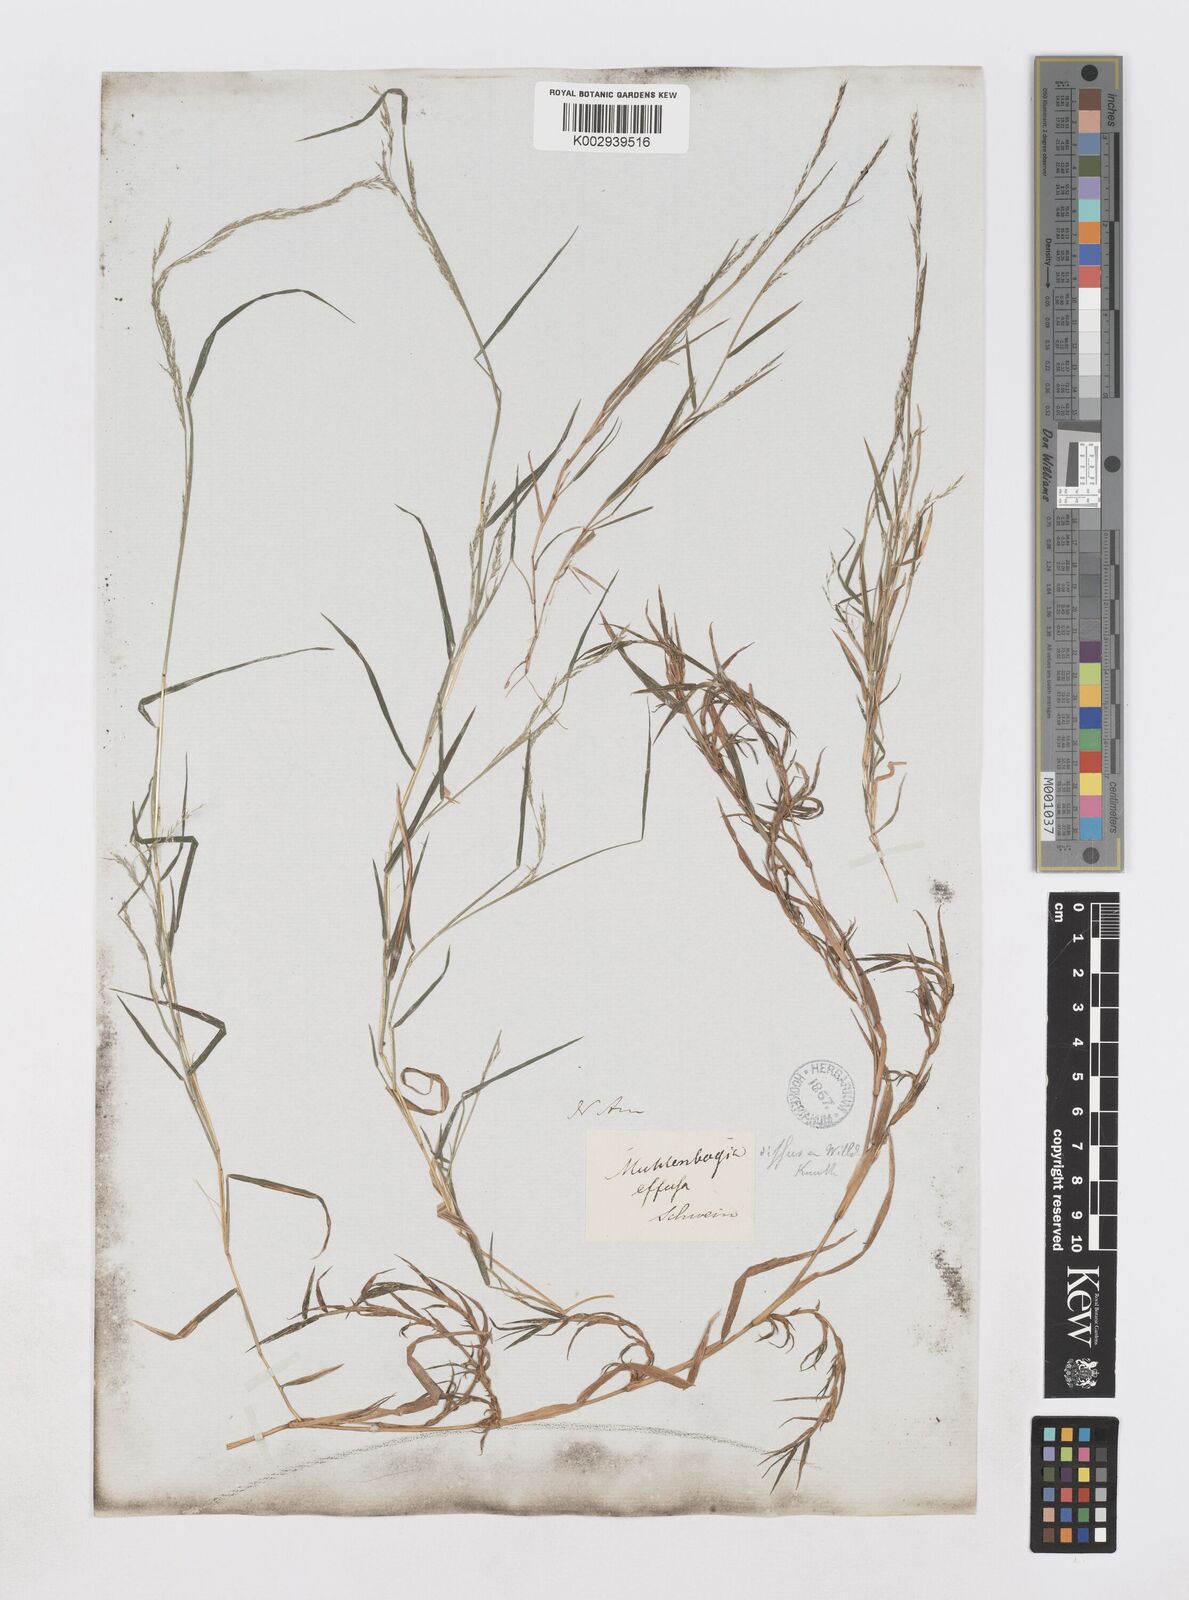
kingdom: Plantae
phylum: Tracheophyta
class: Liliopsida
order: Poales
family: Poaceae
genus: Muhlenbergia
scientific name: Muhlenbergia schreberi
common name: Nimblewill
